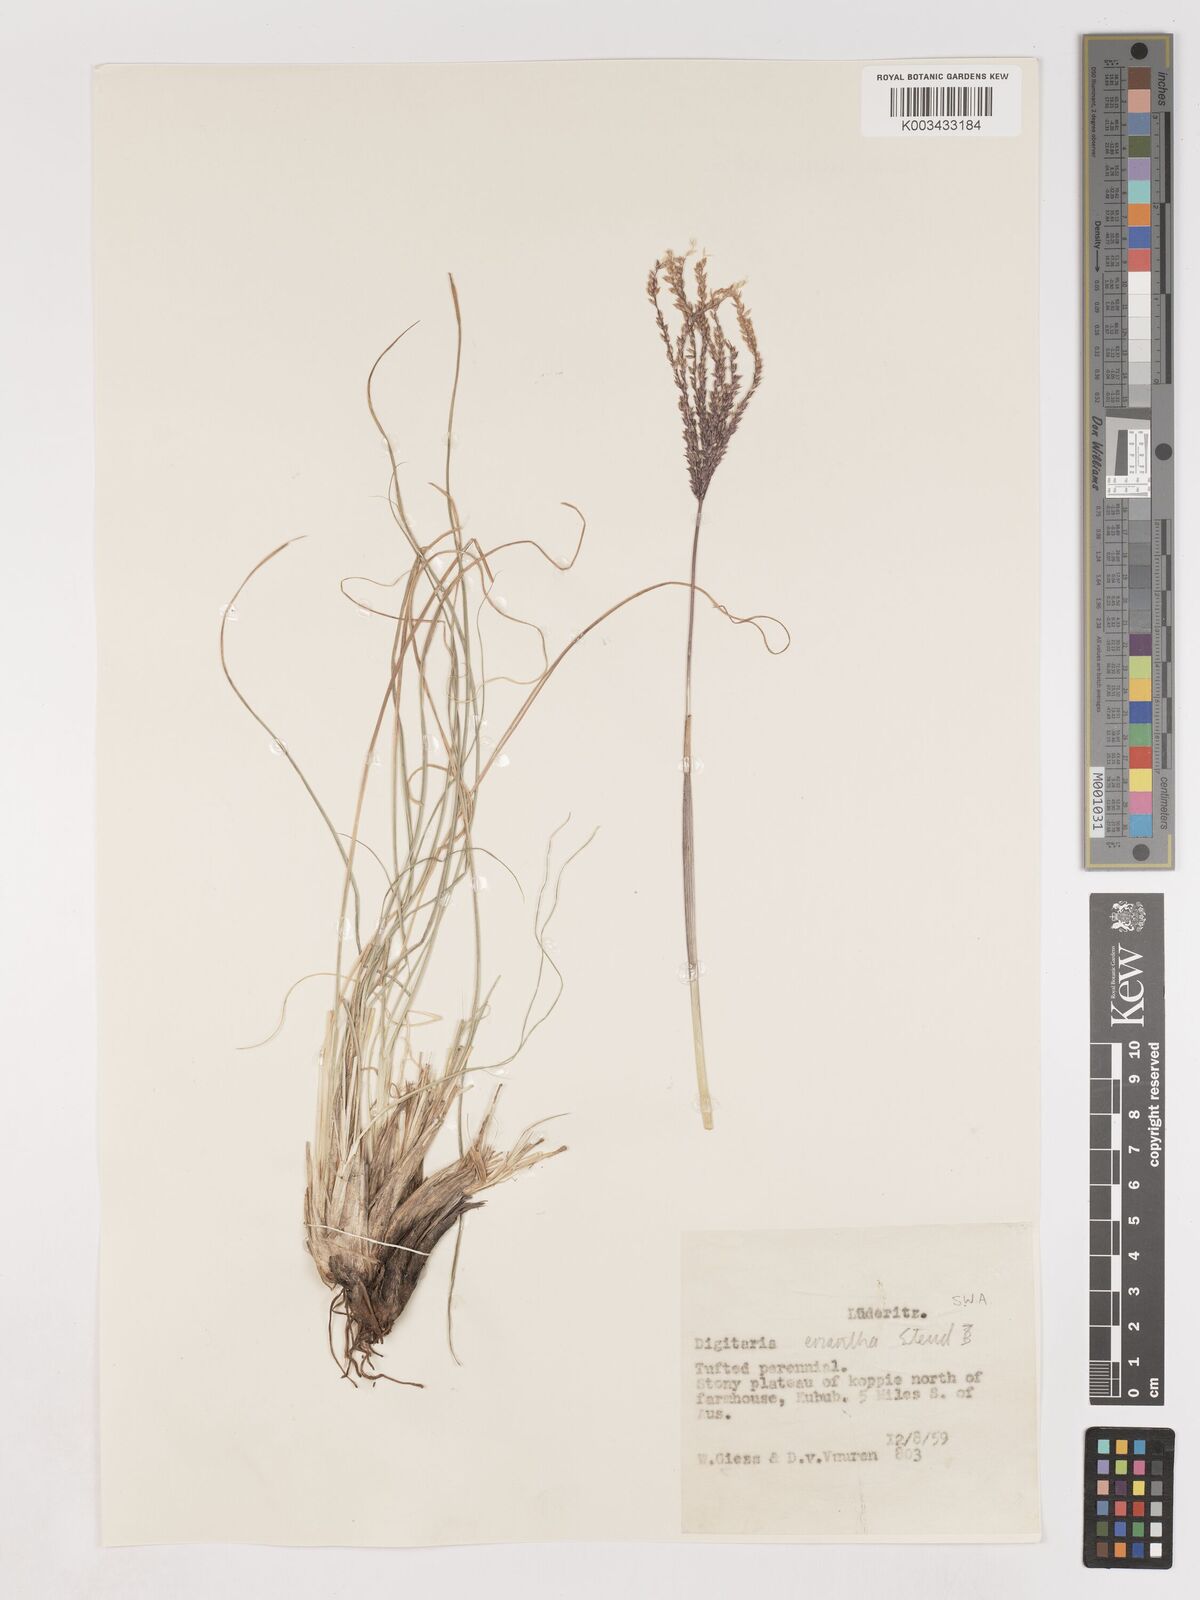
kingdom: Plantae
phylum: Tracheophyta
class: Liliopsida
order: Poales
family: Poaceae
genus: Digitaria
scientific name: Digitaria eriantha
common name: Digitgrass
